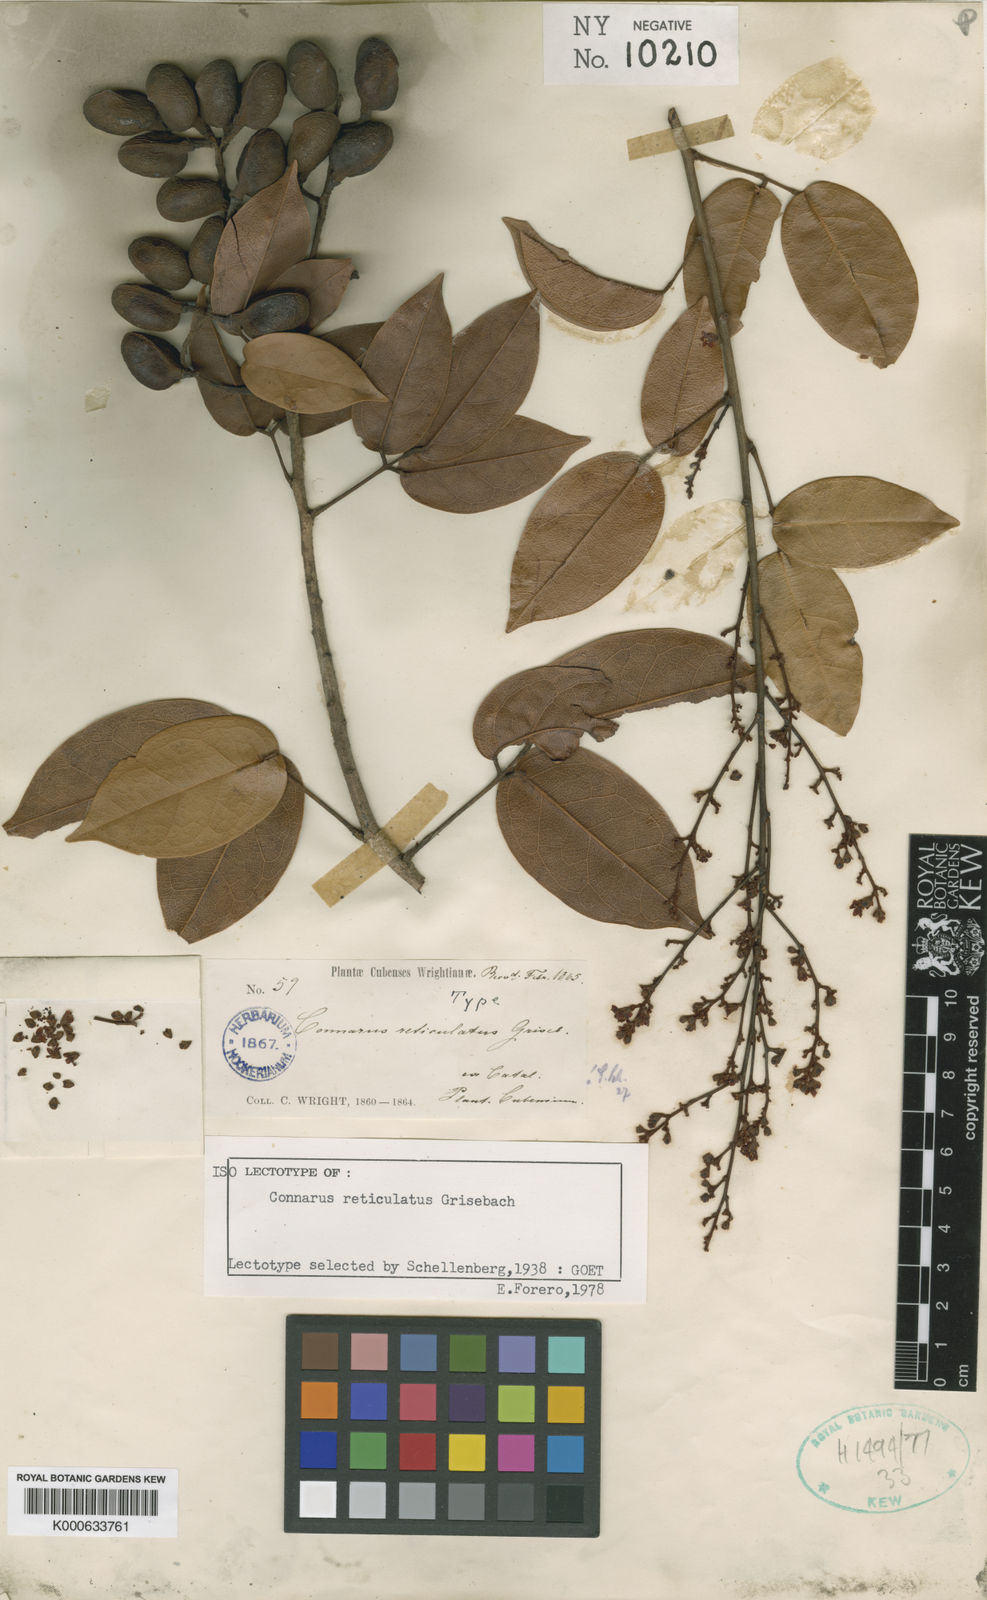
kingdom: Plantae
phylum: Tracheophyta
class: Magnoliopsida
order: Oxalidales
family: Connaraceae
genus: Connarus
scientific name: Connarus reticulatus
